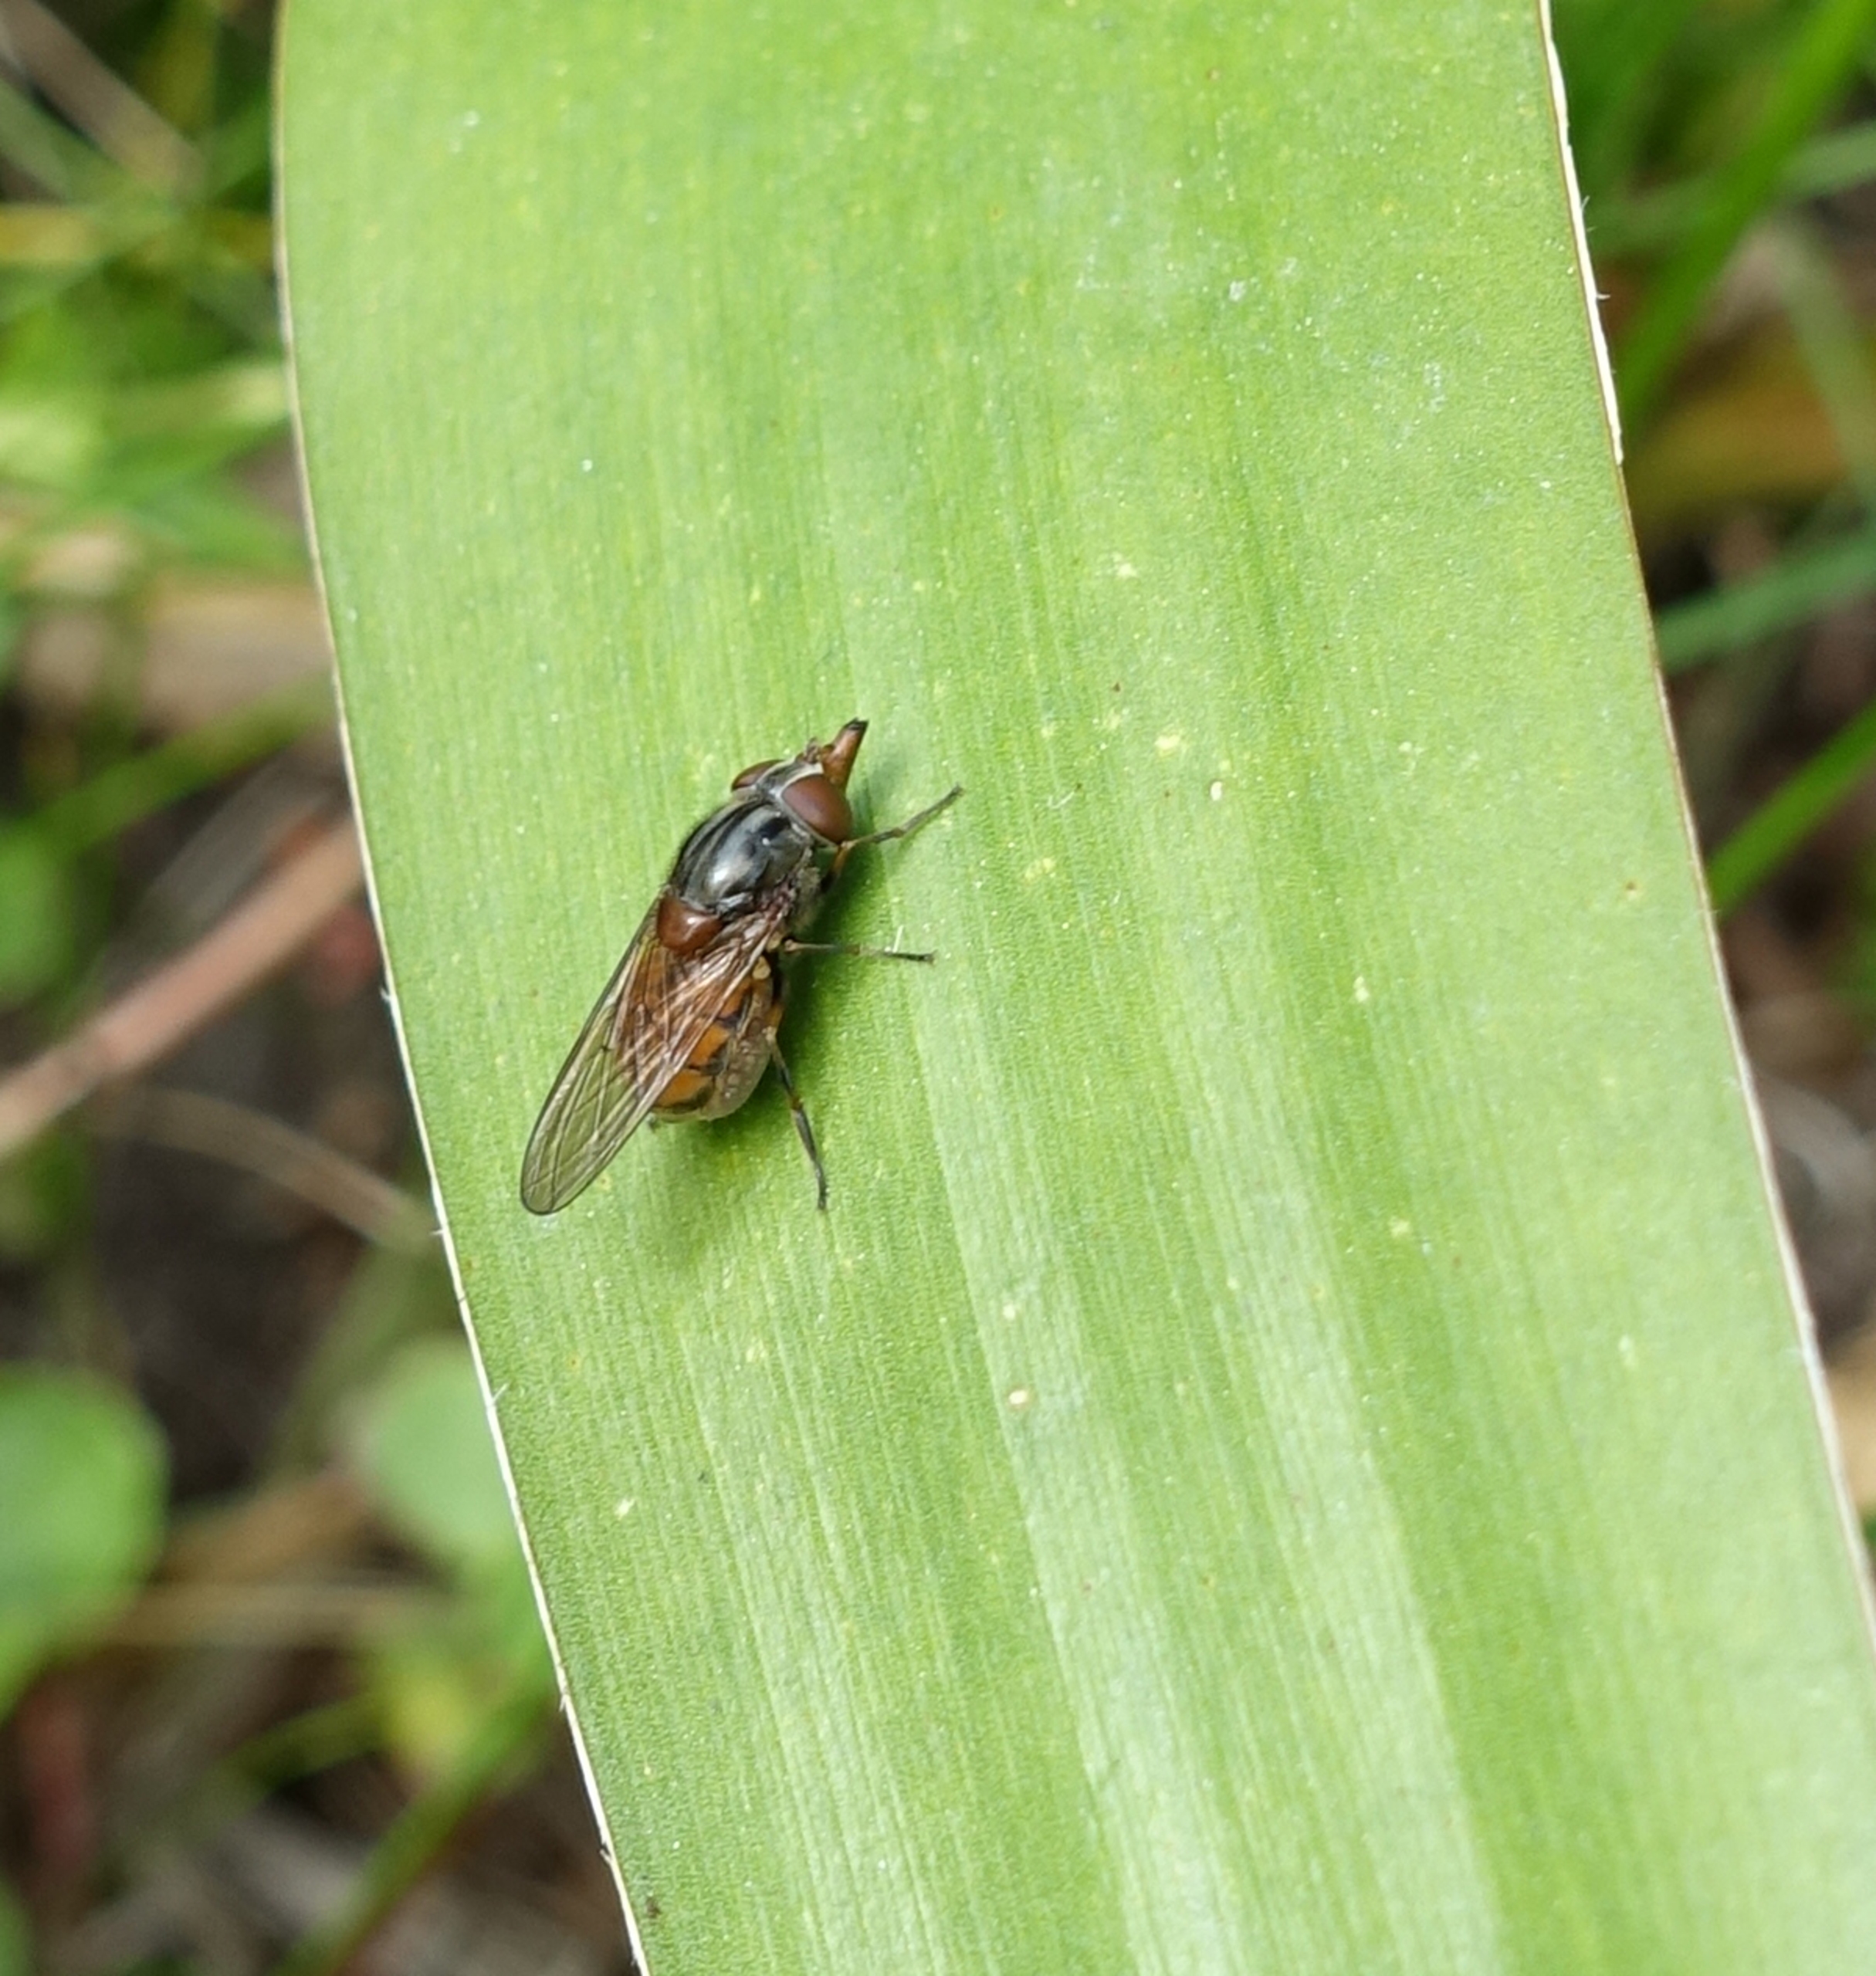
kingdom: Animalia
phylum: Arthropoda
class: Insecta
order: Diptera
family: Syrphidae
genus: Rhingia
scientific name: Rhingia campestris
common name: Mark-snabelsvirreflue
